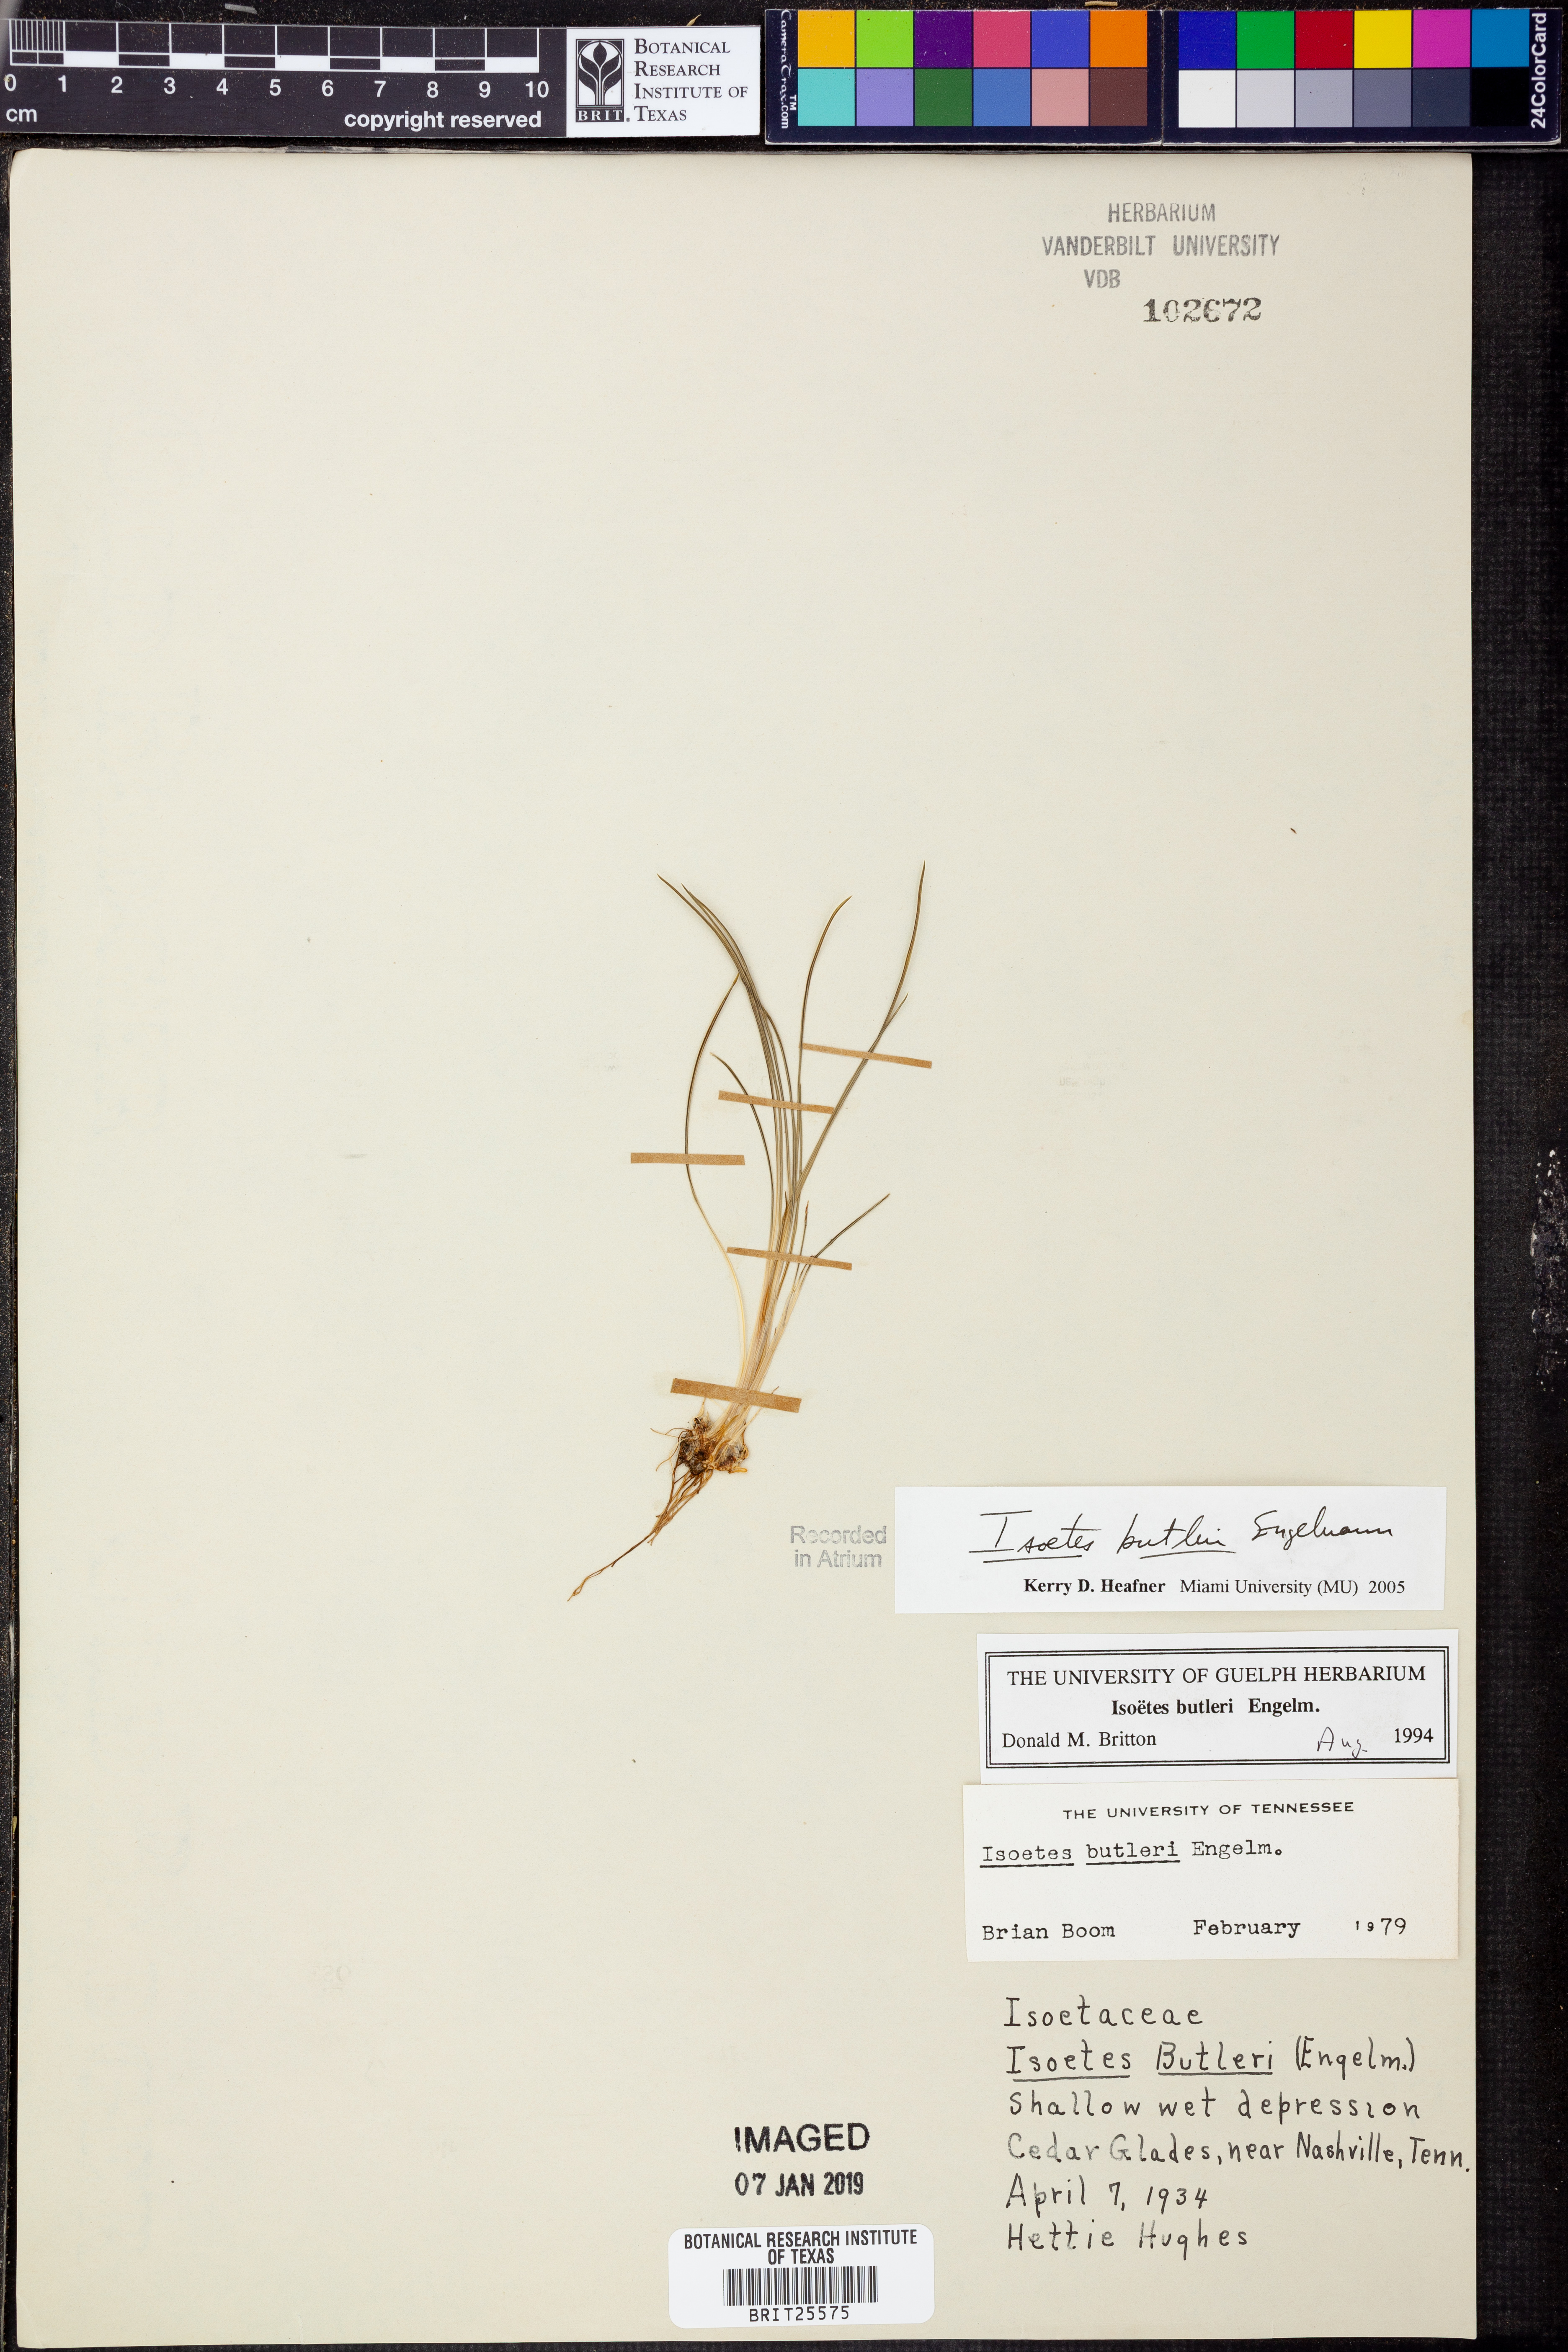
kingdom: Plantae
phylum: Tracheophyta
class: Lycopodiopsida
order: Isoetales
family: Isoetaceae
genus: Isoetes
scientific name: Isoetes butleri
